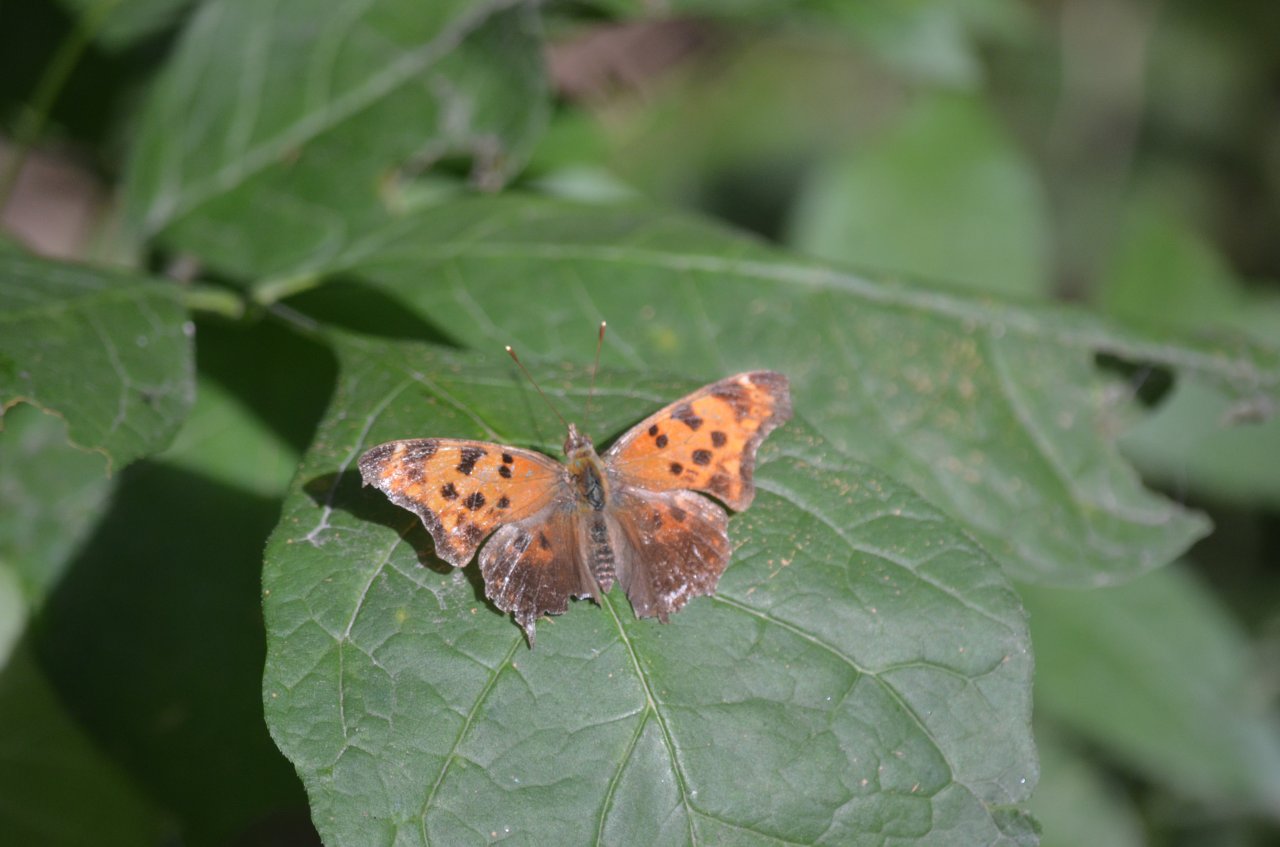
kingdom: Animalia
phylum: Arthropoda
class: Insecta
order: Lepidoptera
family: Nymphalidae
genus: Polygonia
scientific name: Polygonia comma
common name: Eastern Comma
